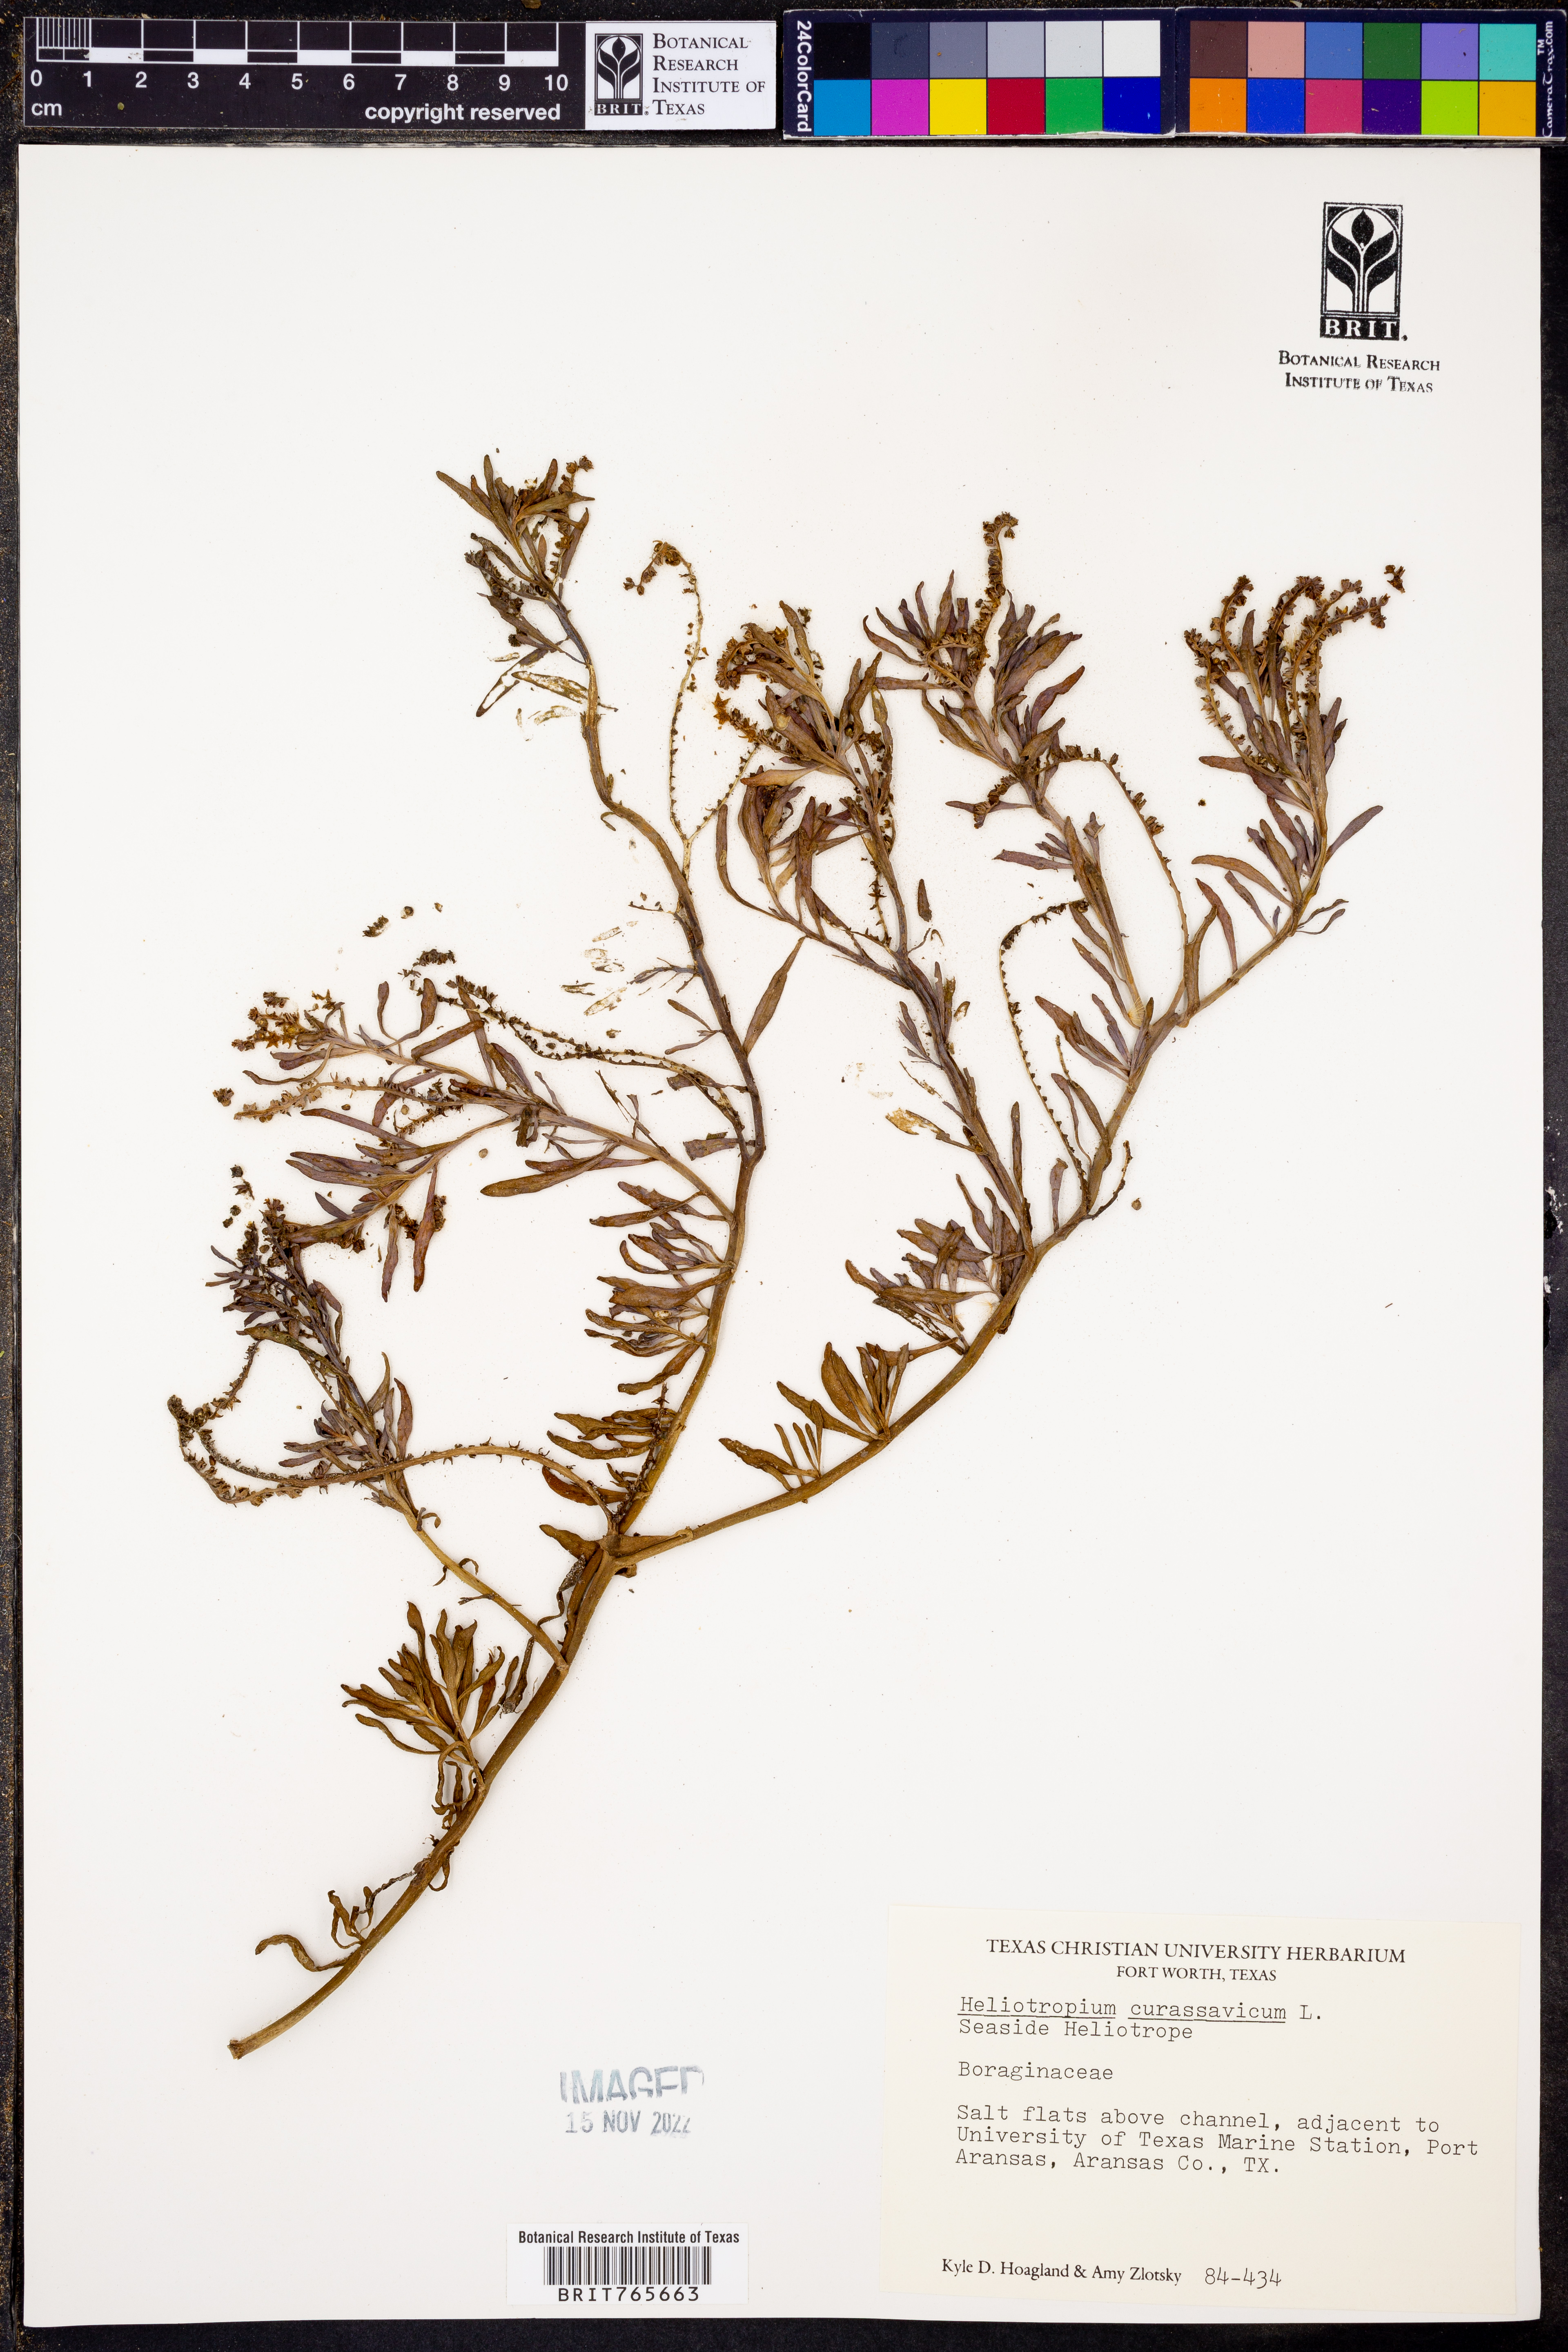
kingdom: Plantae
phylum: Tracheophyta
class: Magnoliopsida
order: Boraginales
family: Heliotropiaceae
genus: Heliotropium
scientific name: Heliotropium curassavicum
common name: Seaside heliotrope
